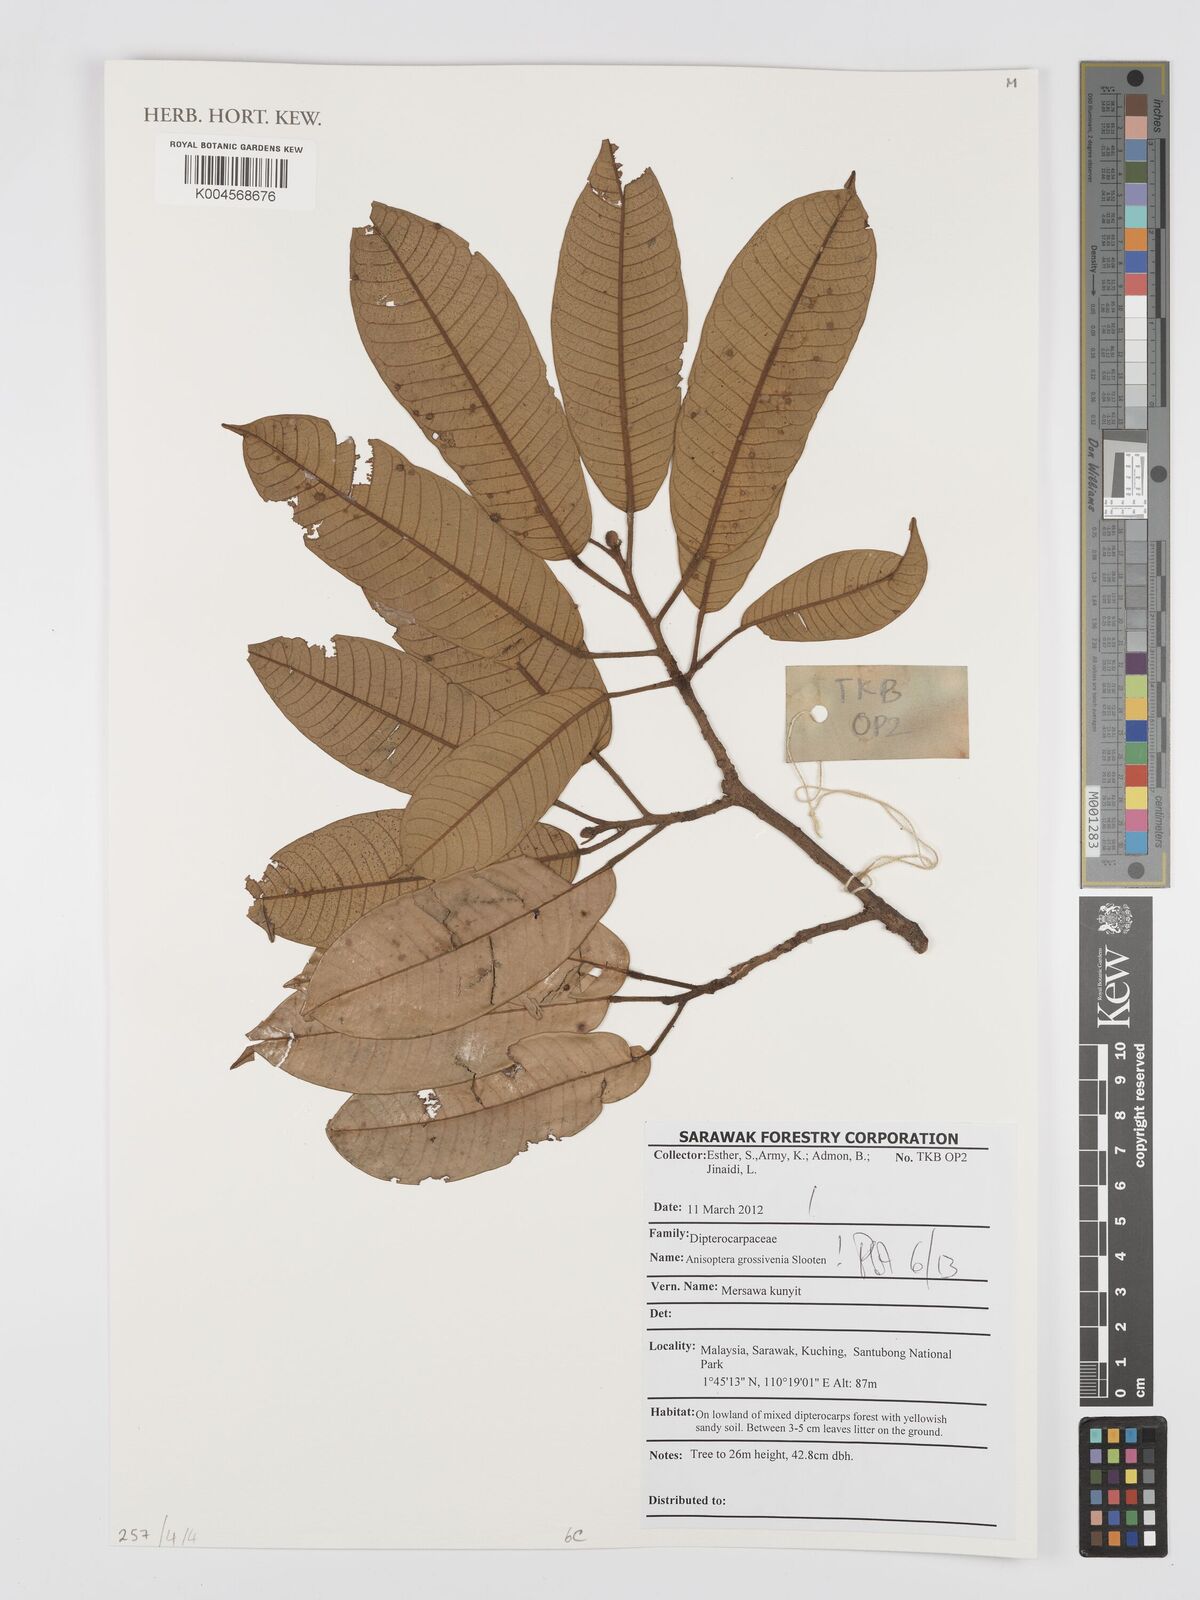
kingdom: Plantae
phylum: Tracheophyta
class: Magnoliopsida
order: Malvales
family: Dipterocarpaceae
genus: Anisoptera
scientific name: Anisoptera grossivenia
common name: Krabak
